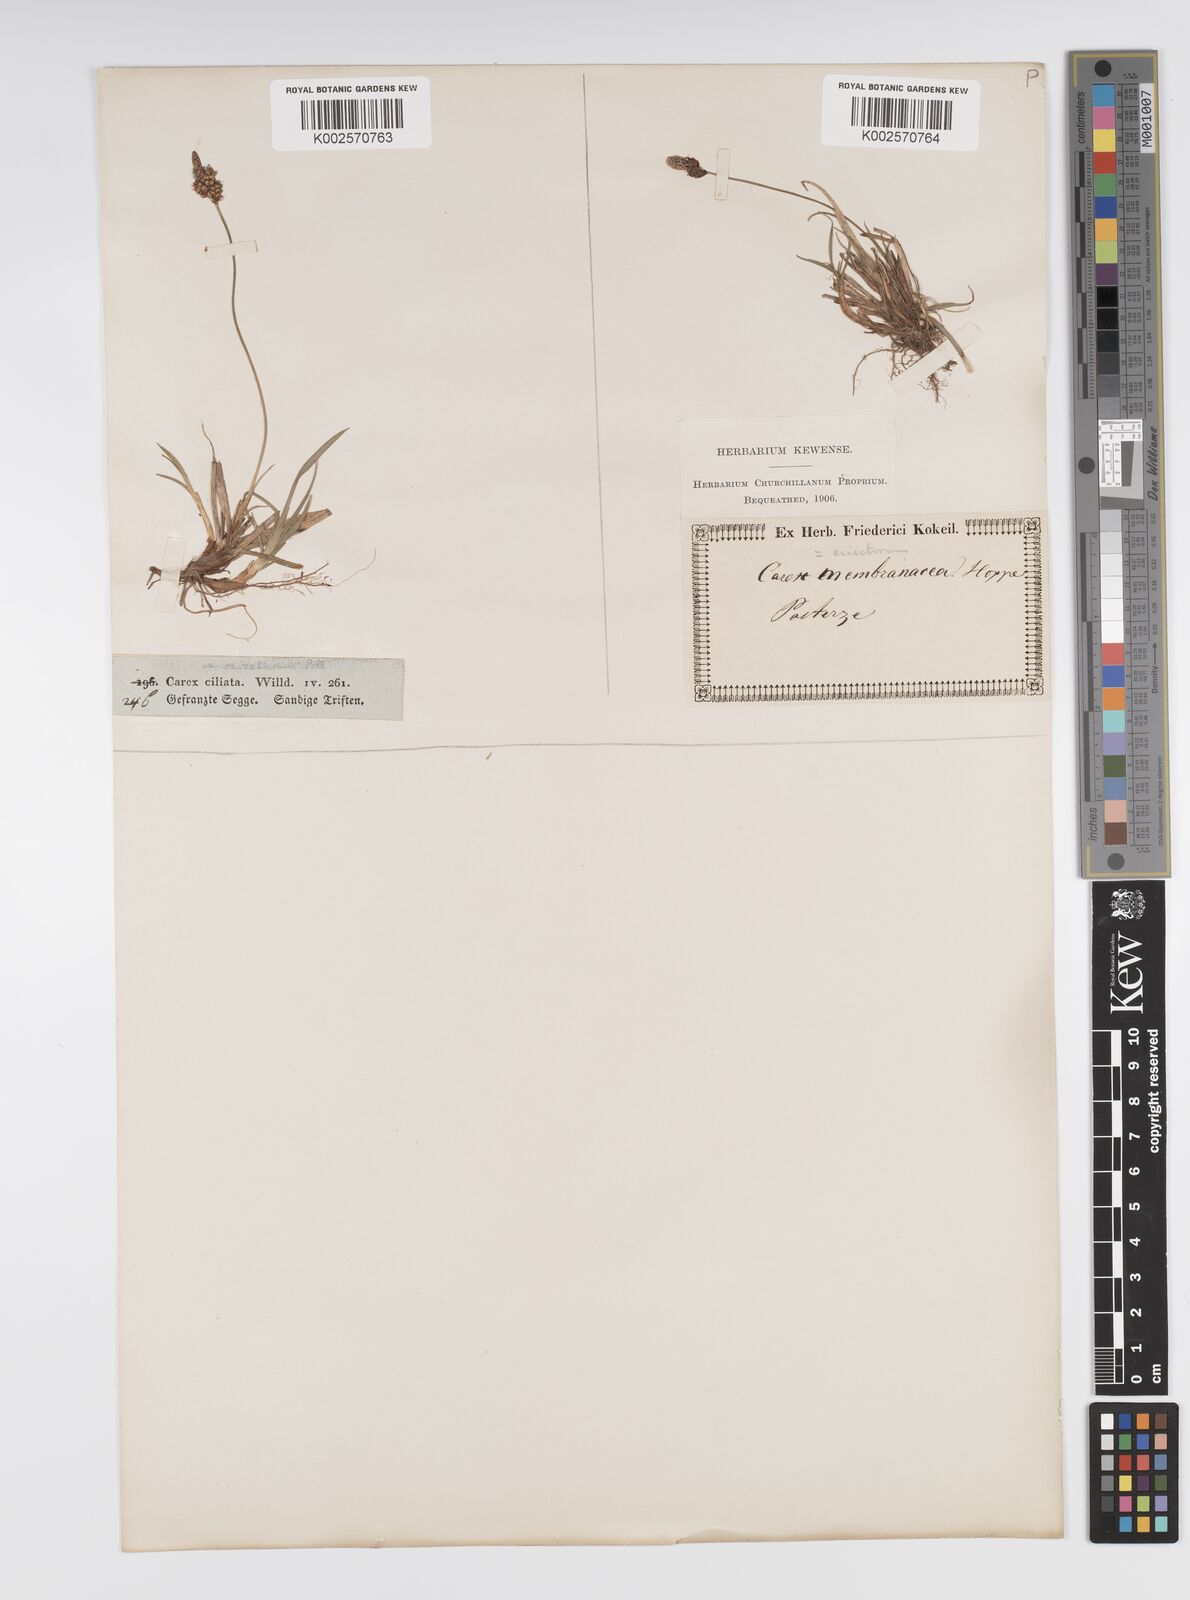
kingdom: Plantae
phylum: Tracheophyta
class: Liliopsida
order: Poales
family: Cyperaceae
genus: Carex
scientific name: Carex ericetorum
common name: Rare spring-sedge
